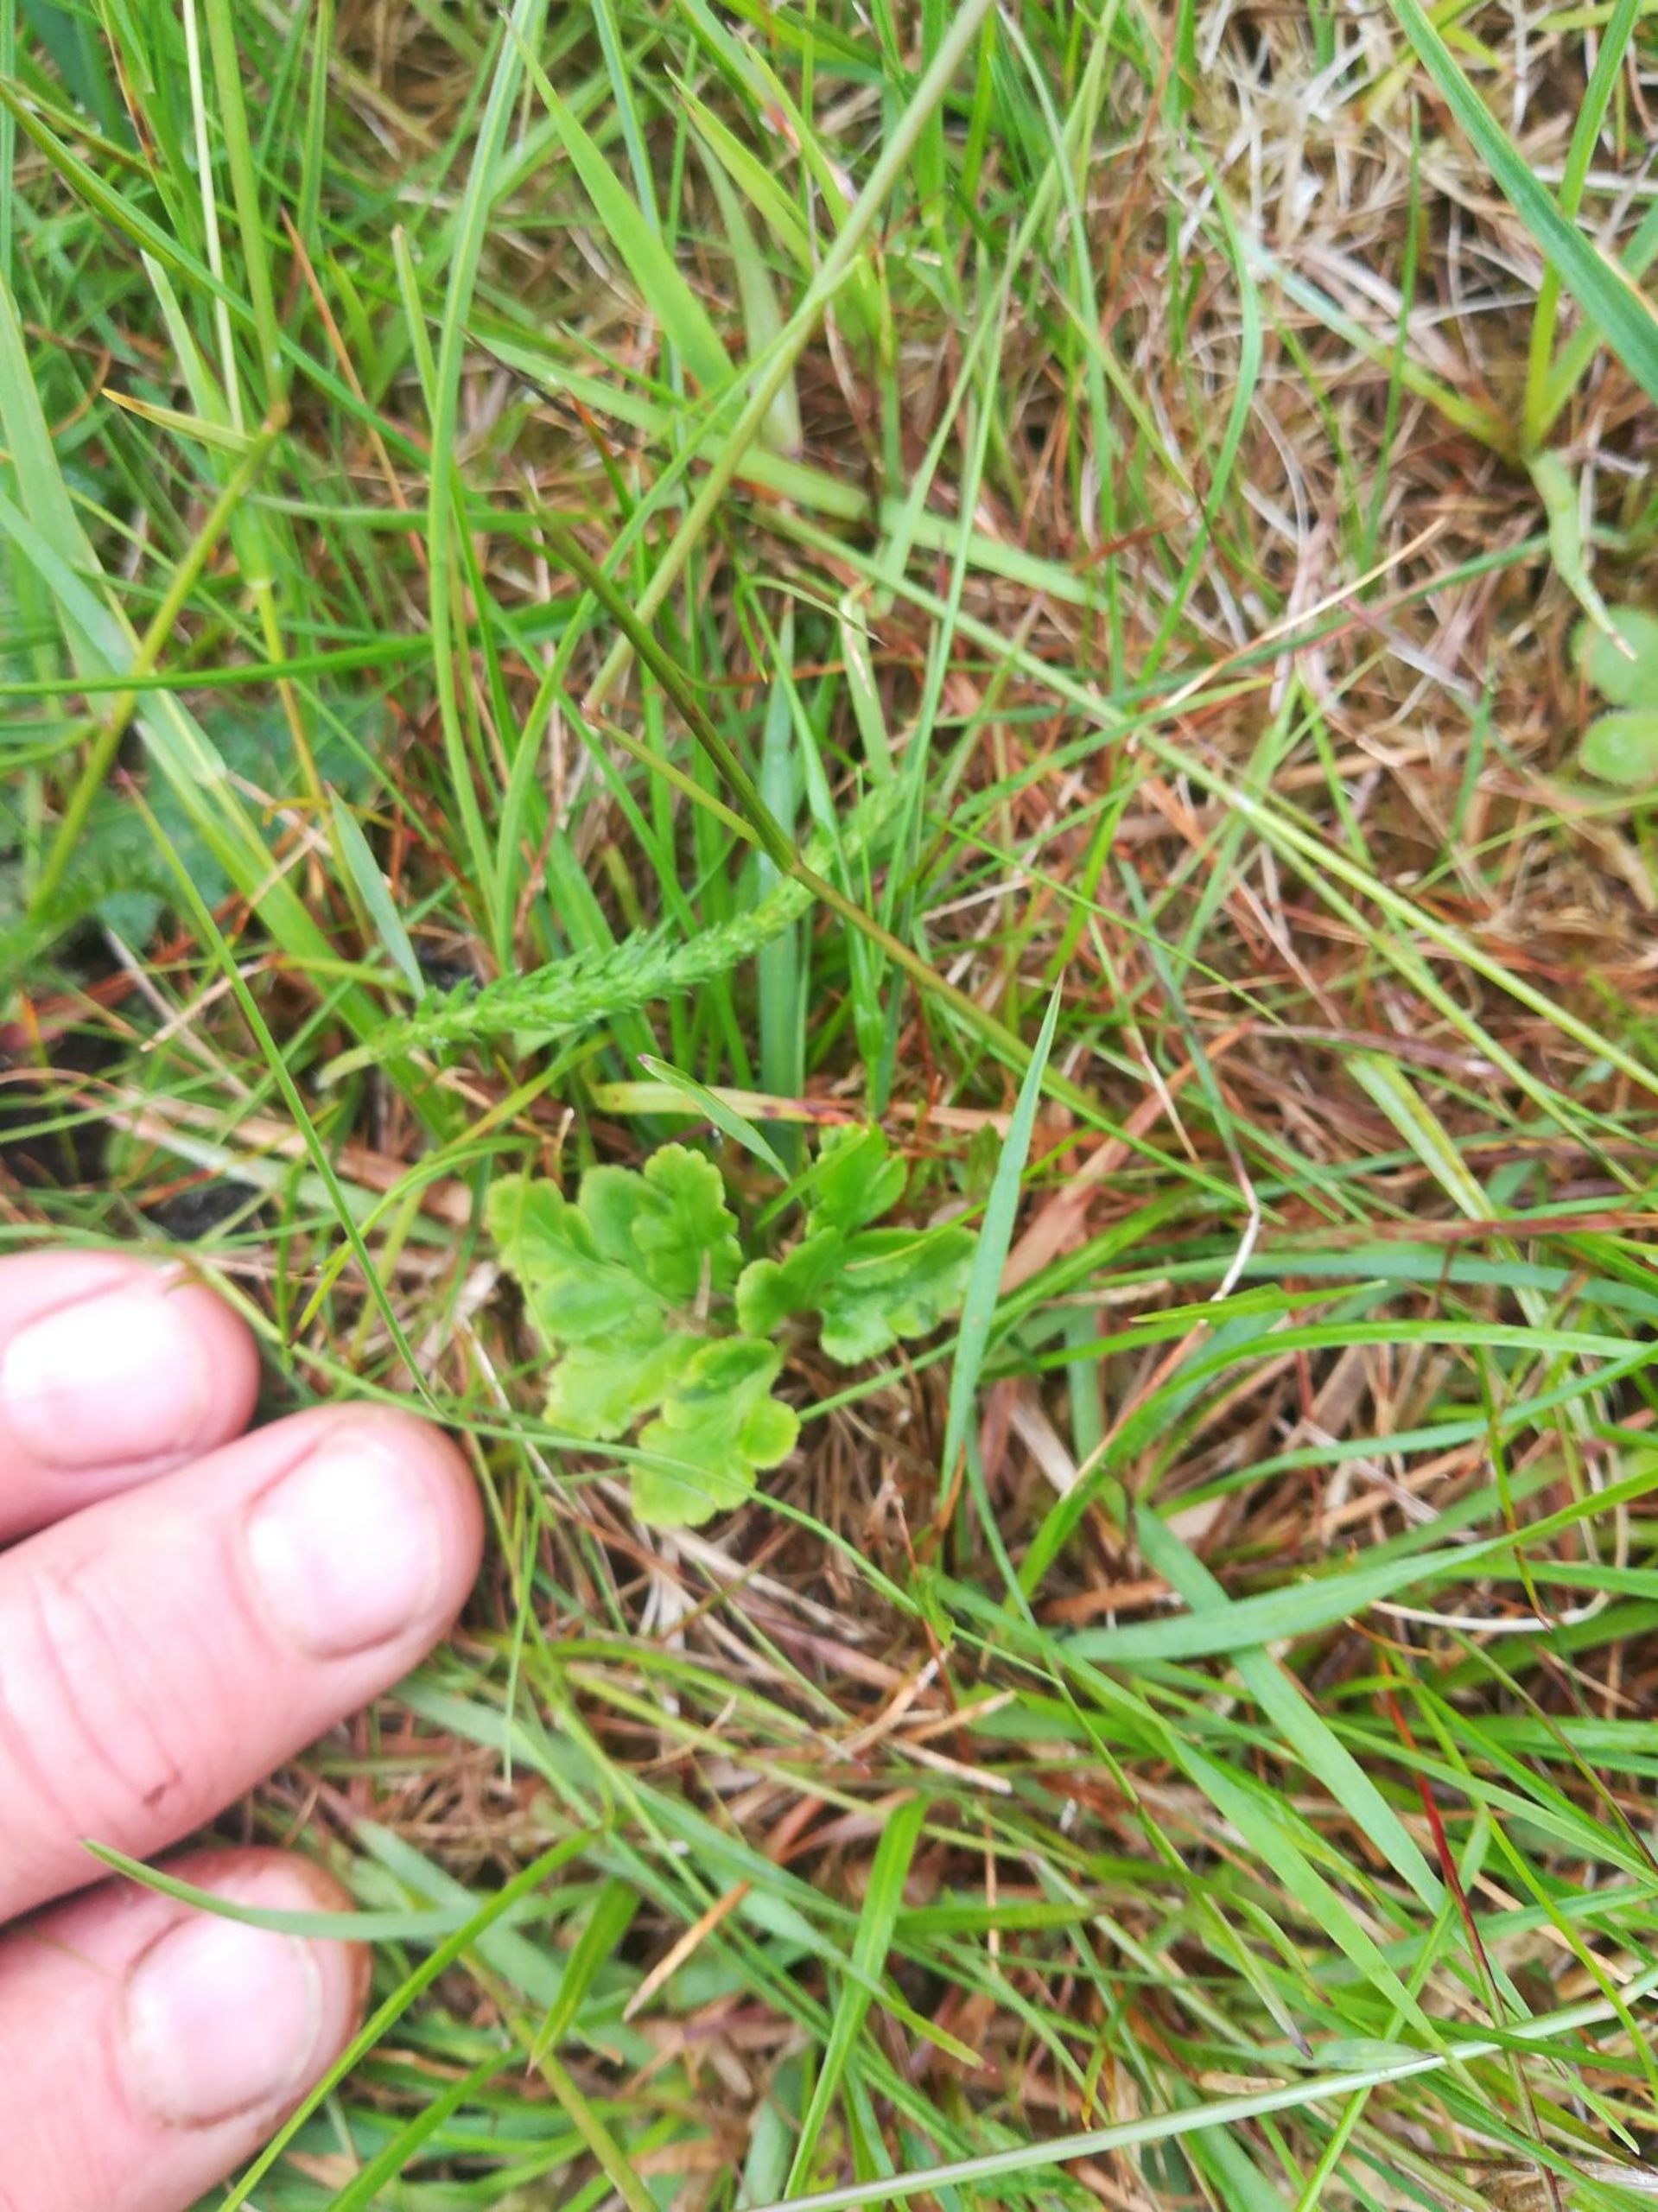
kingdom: Plantae
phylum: Tracheophyta
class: Polypodiopsida
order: Ophioglossales
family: Ophioglossaceae
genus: Sceptridium
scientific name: Sceptridium multifidum
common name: Stilk-månerude
